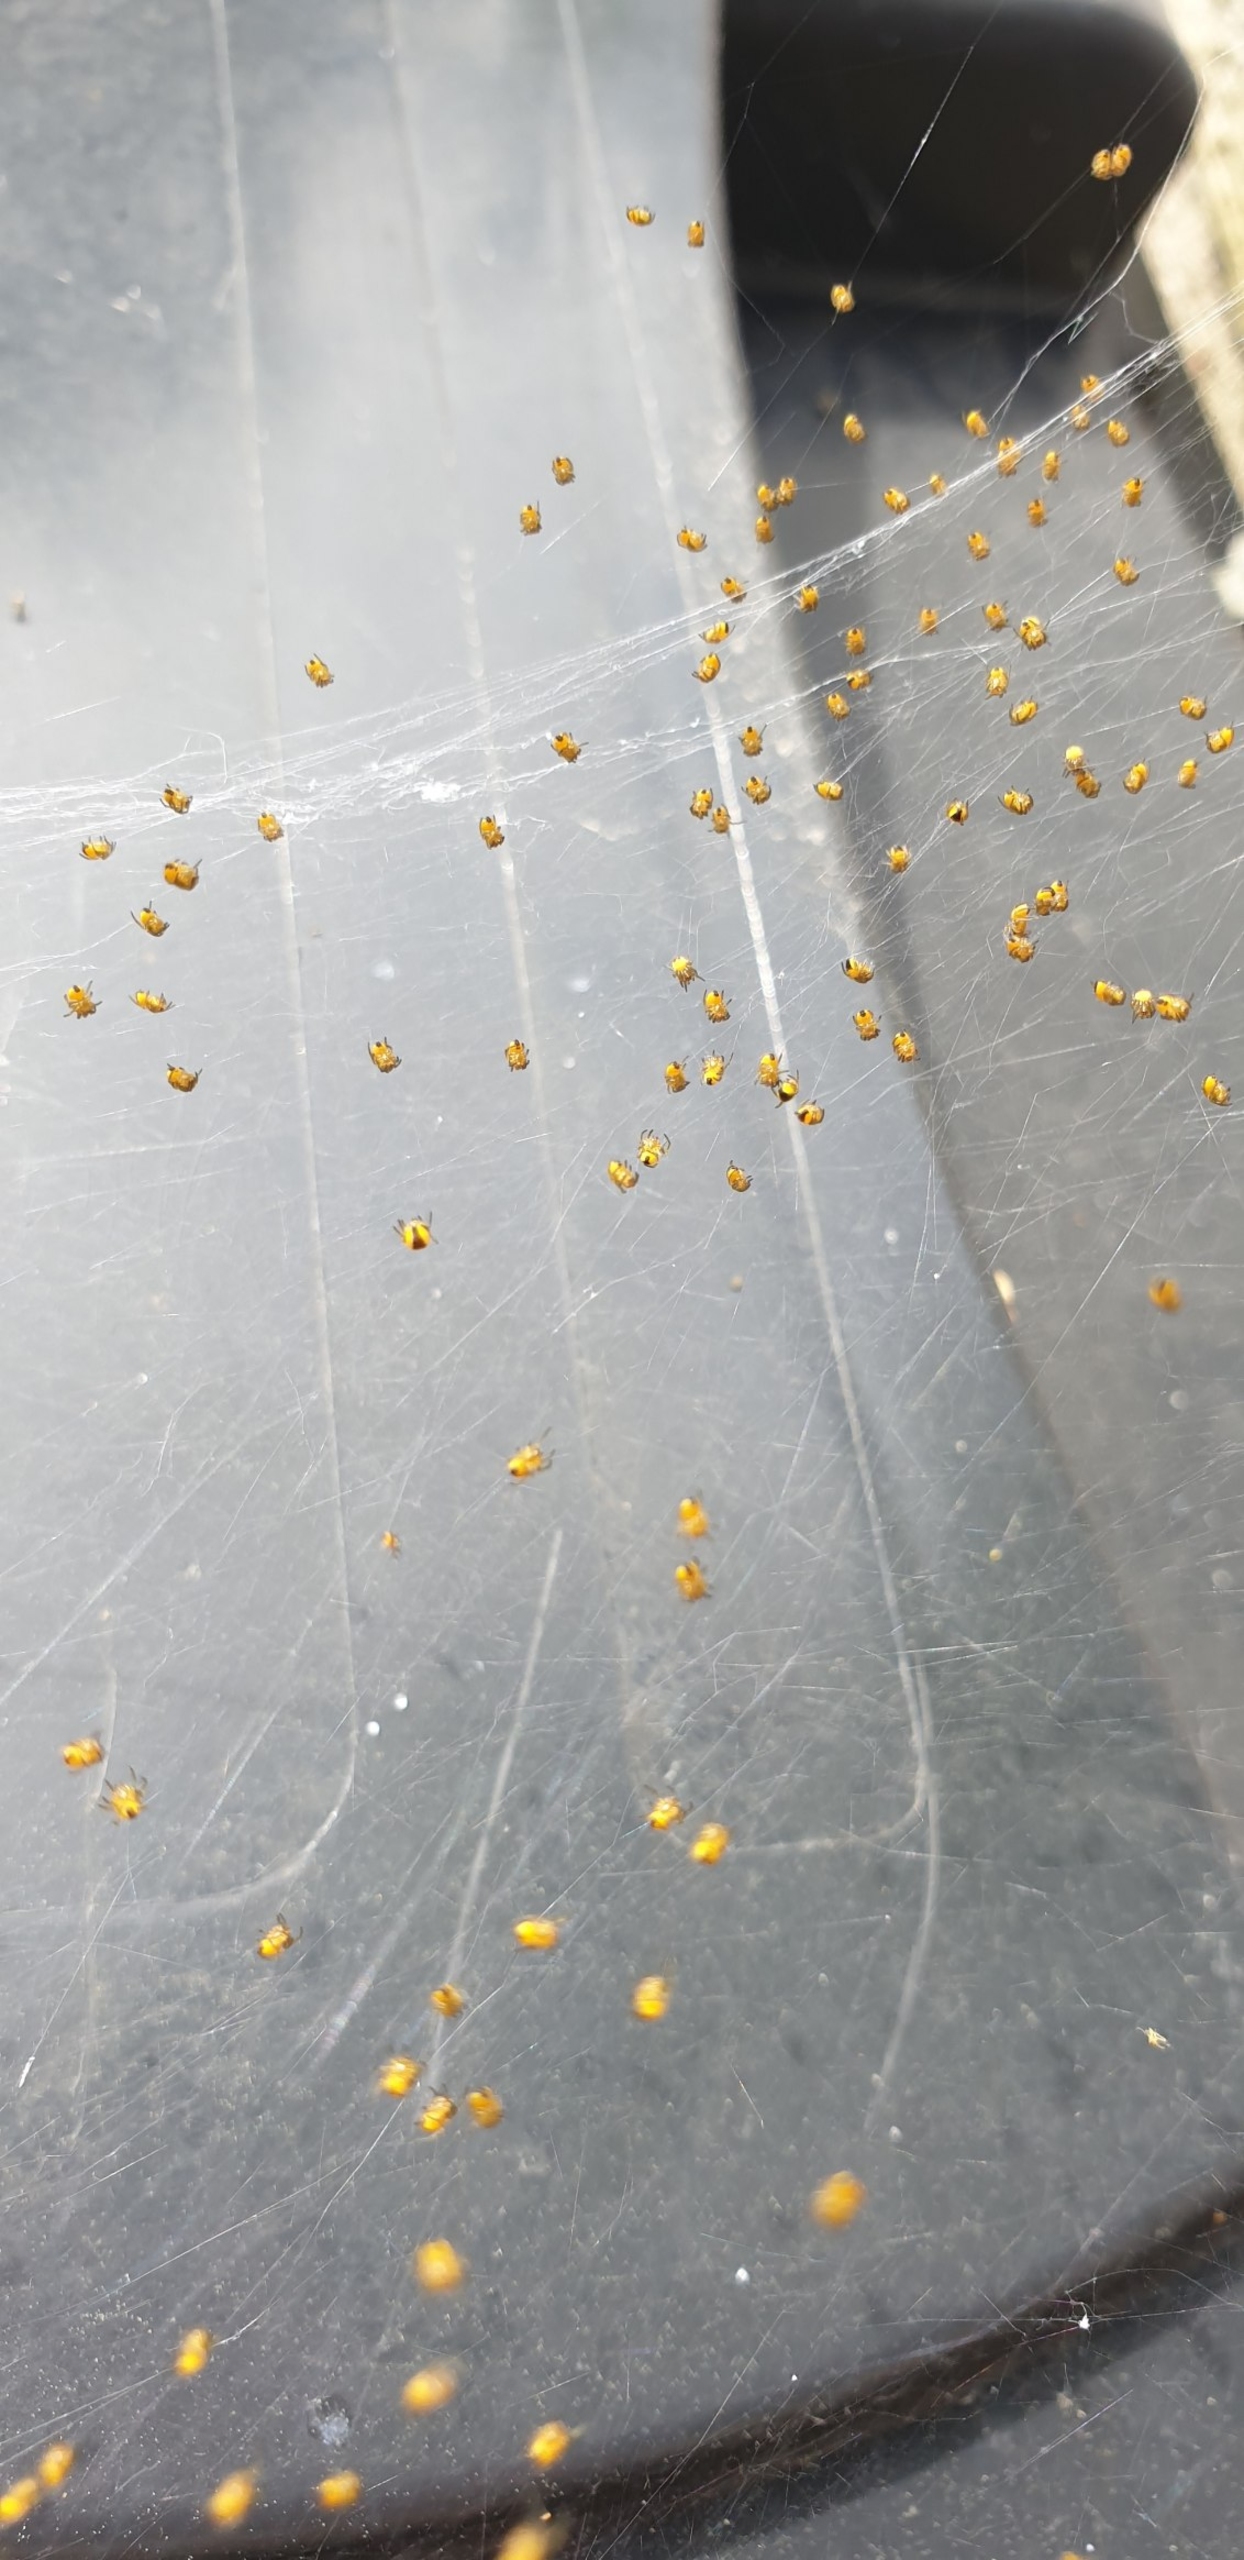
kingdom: Animalia
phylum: Arthropoda
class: Arachnida
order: Araneae
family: Araneidae
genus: Araneus
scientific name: Araneus diadematus
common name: Korsedderkop
